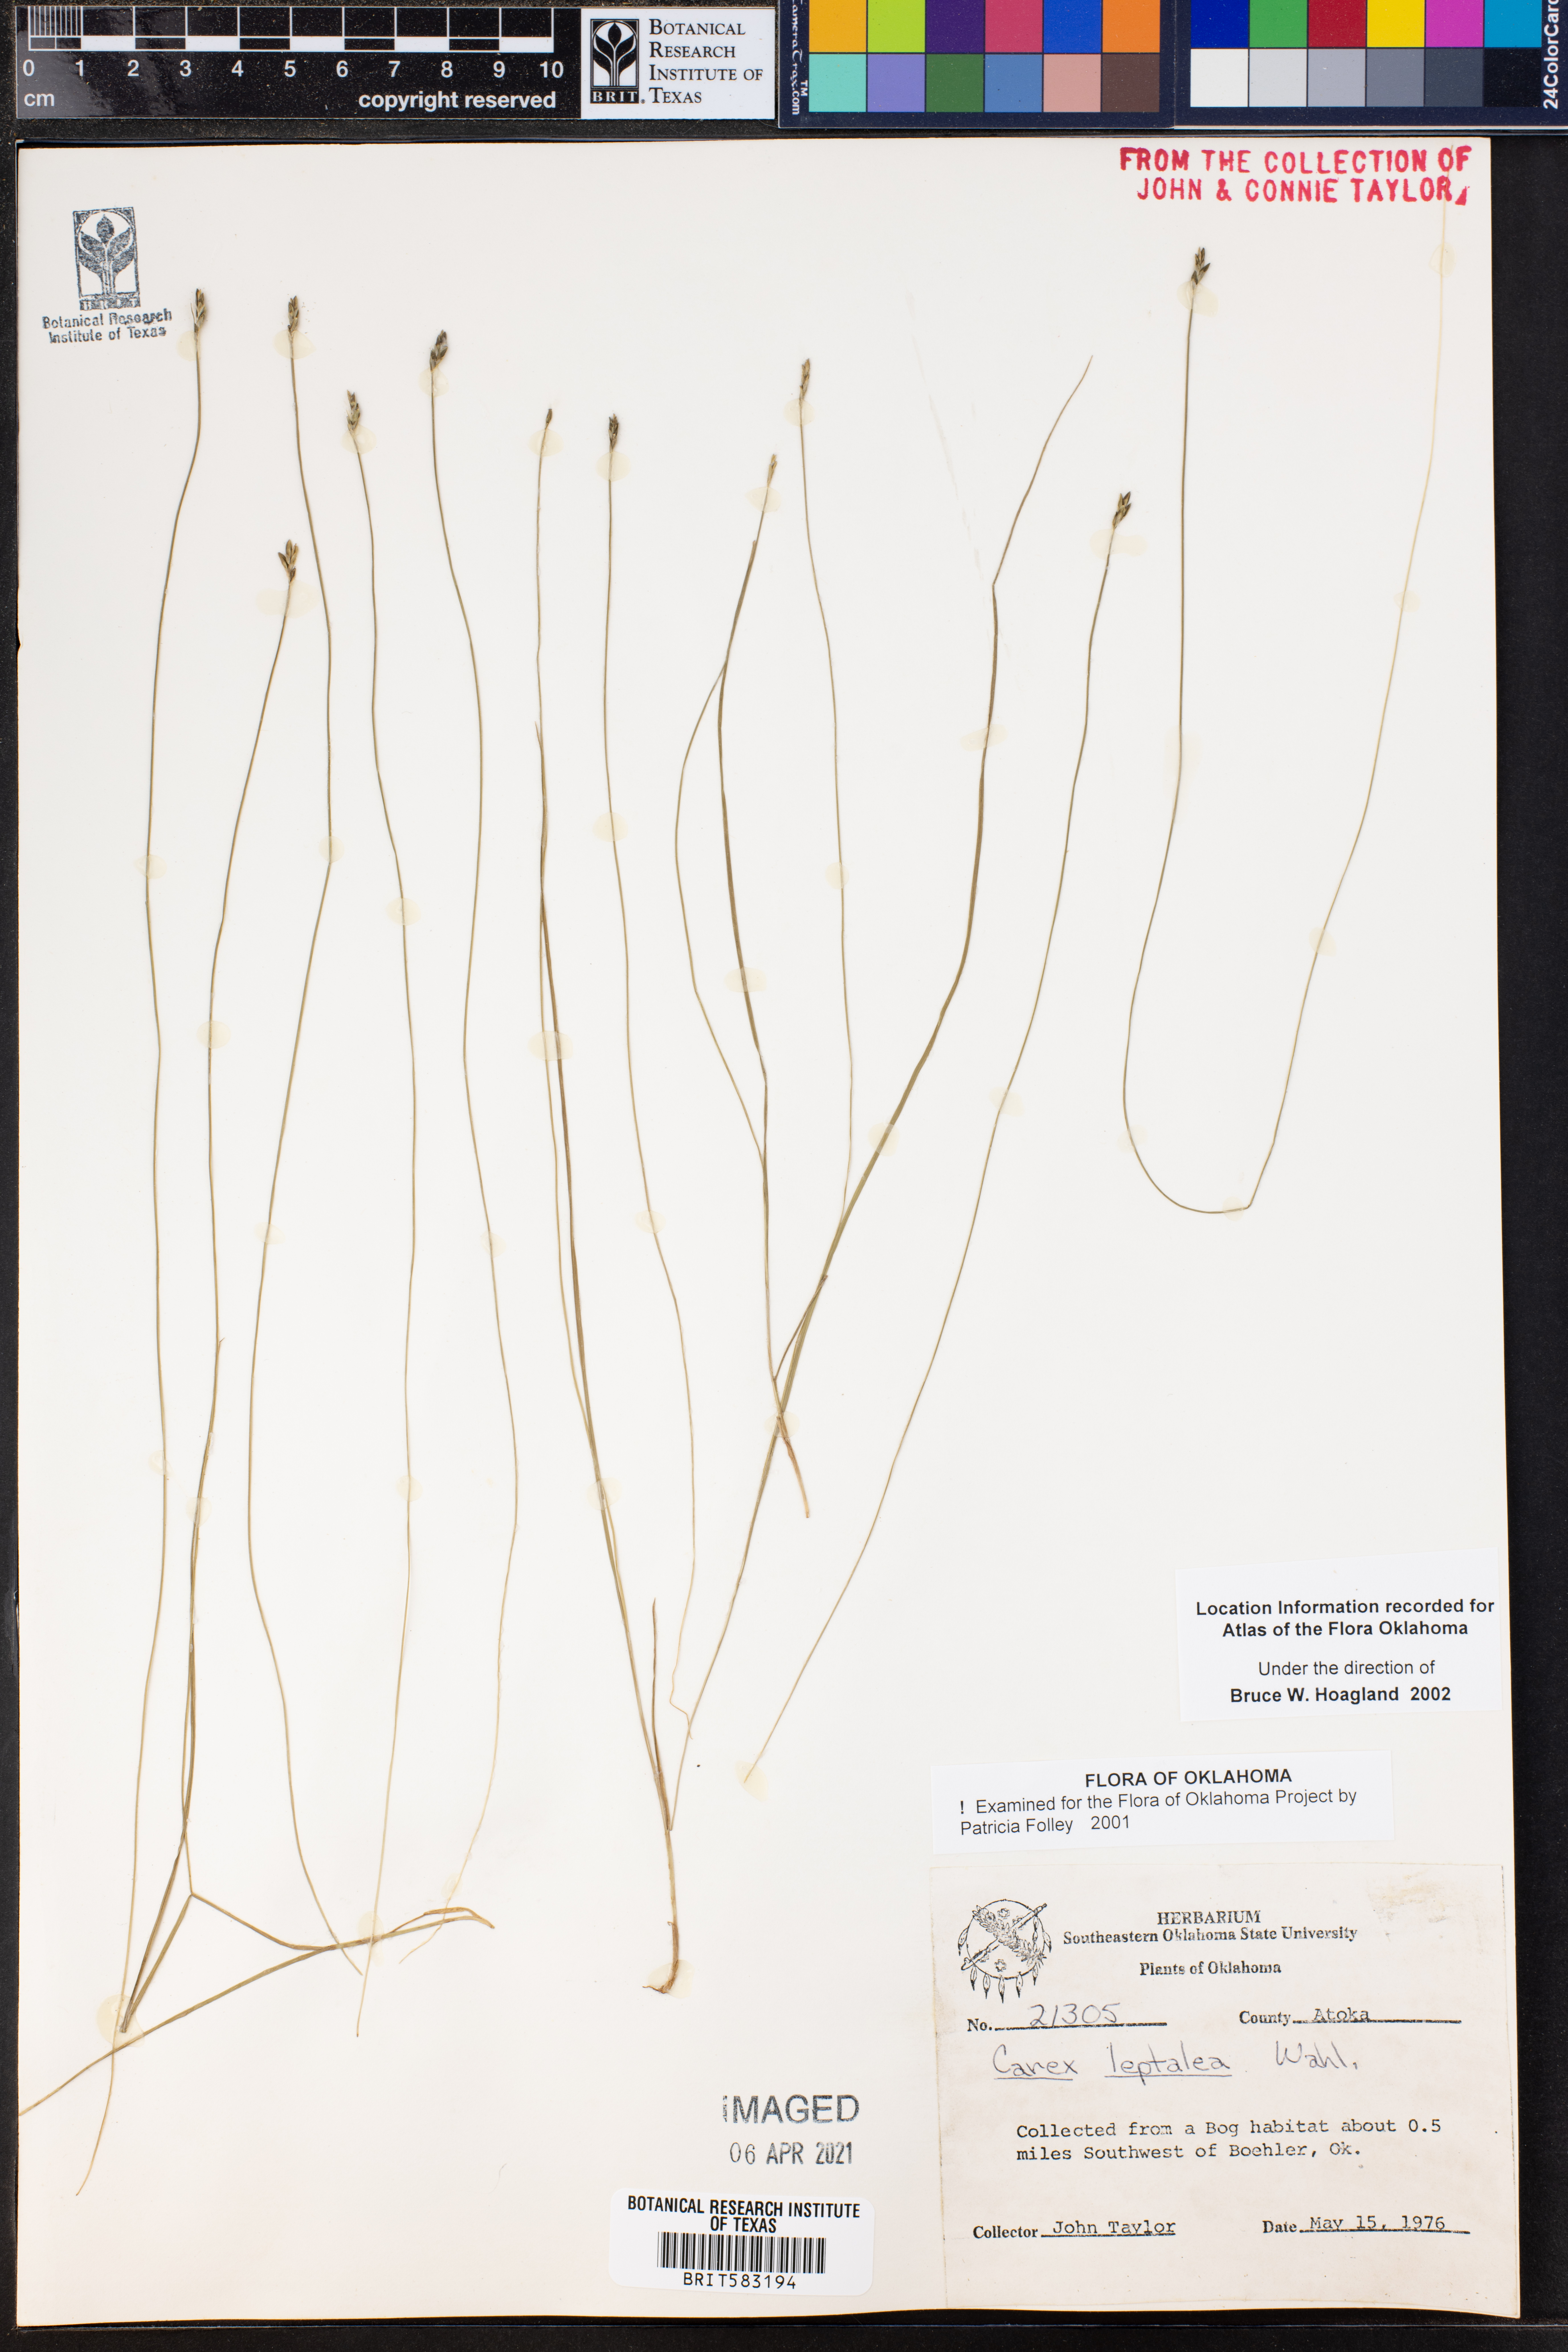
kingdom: Plantae
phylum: Tracheophyta
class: Liliopsida
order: Poales
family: Cyperaceae
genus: Carex
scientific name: Carex leptalea
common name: Bristly-stalked sedge
